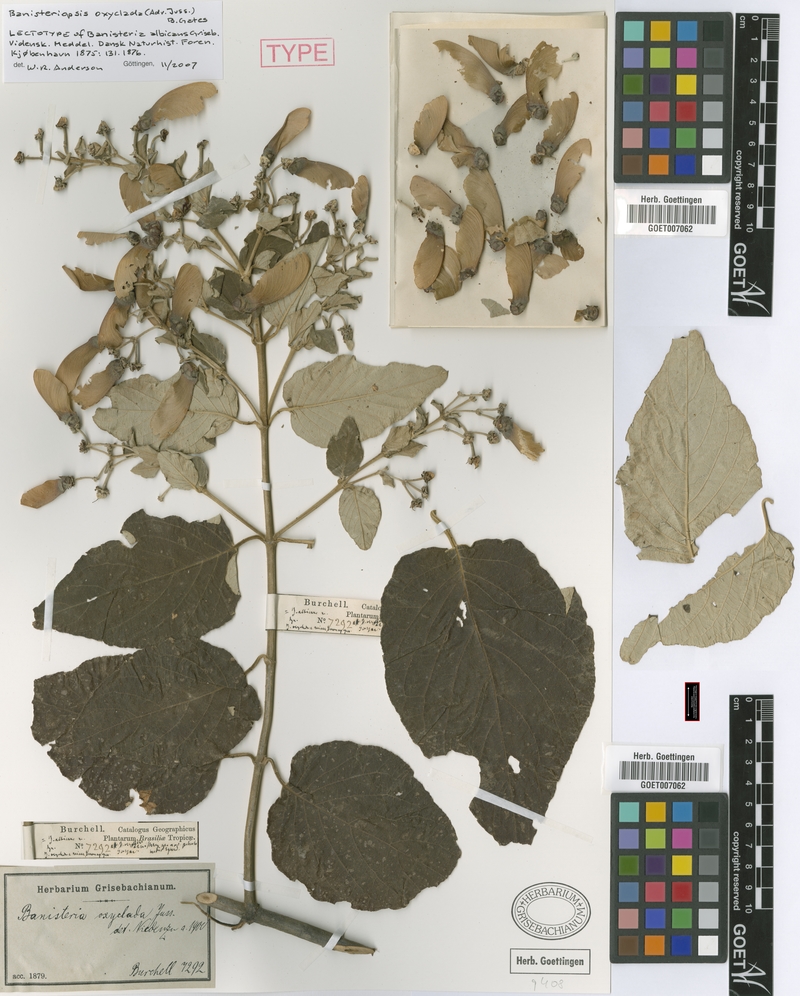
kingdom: Plantae
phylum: Tracheophyta
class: Magnoliopsida
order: Malpighiales
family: Malpighiaceae
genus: Banisteriopsis
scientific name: Banisteriopsis oxyclada
